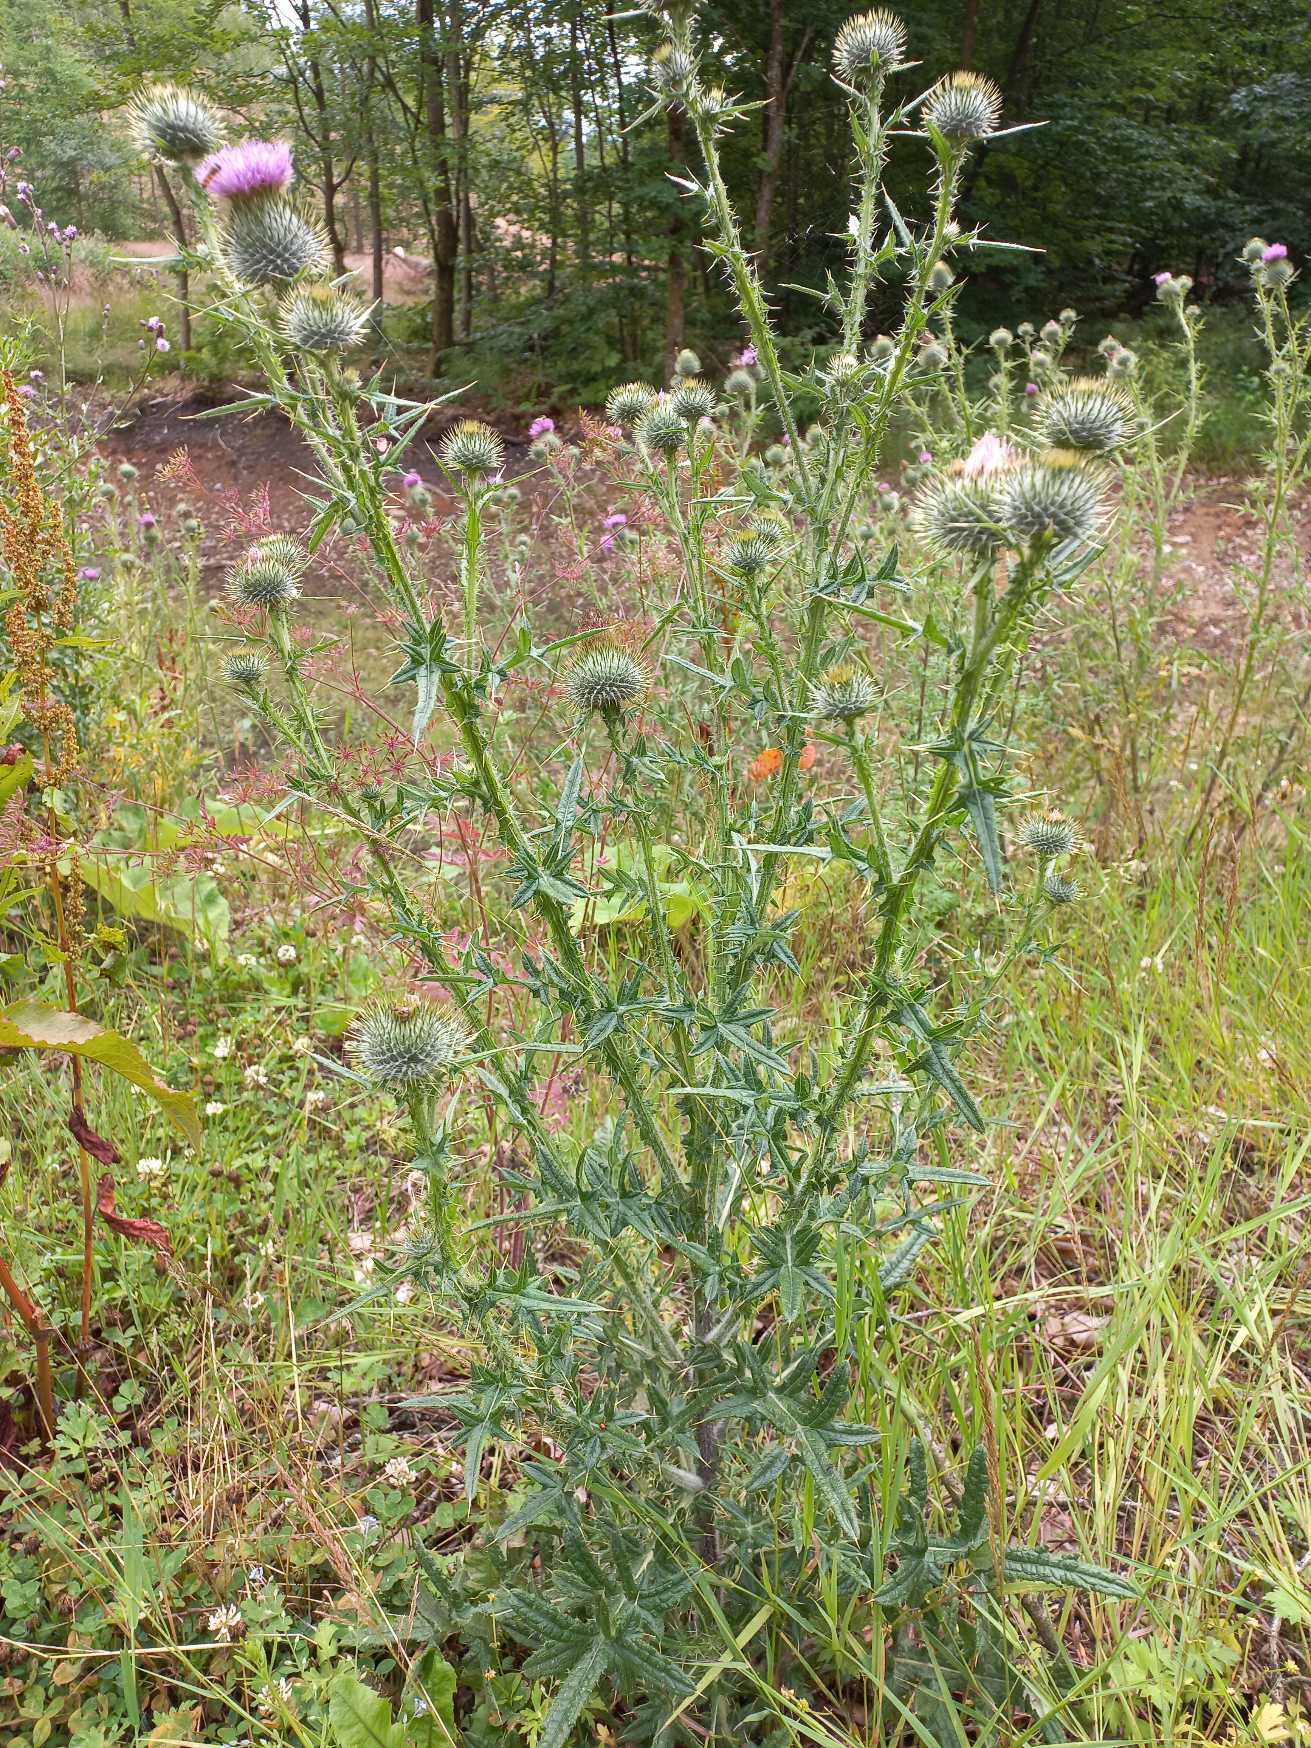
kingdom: Plantae
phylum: Tracheophyta
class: Magnoliopsida
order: Asterales
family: Asteraceae
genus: Cirsium
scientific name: Cirsium vulgare
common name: Horse-tidsel
